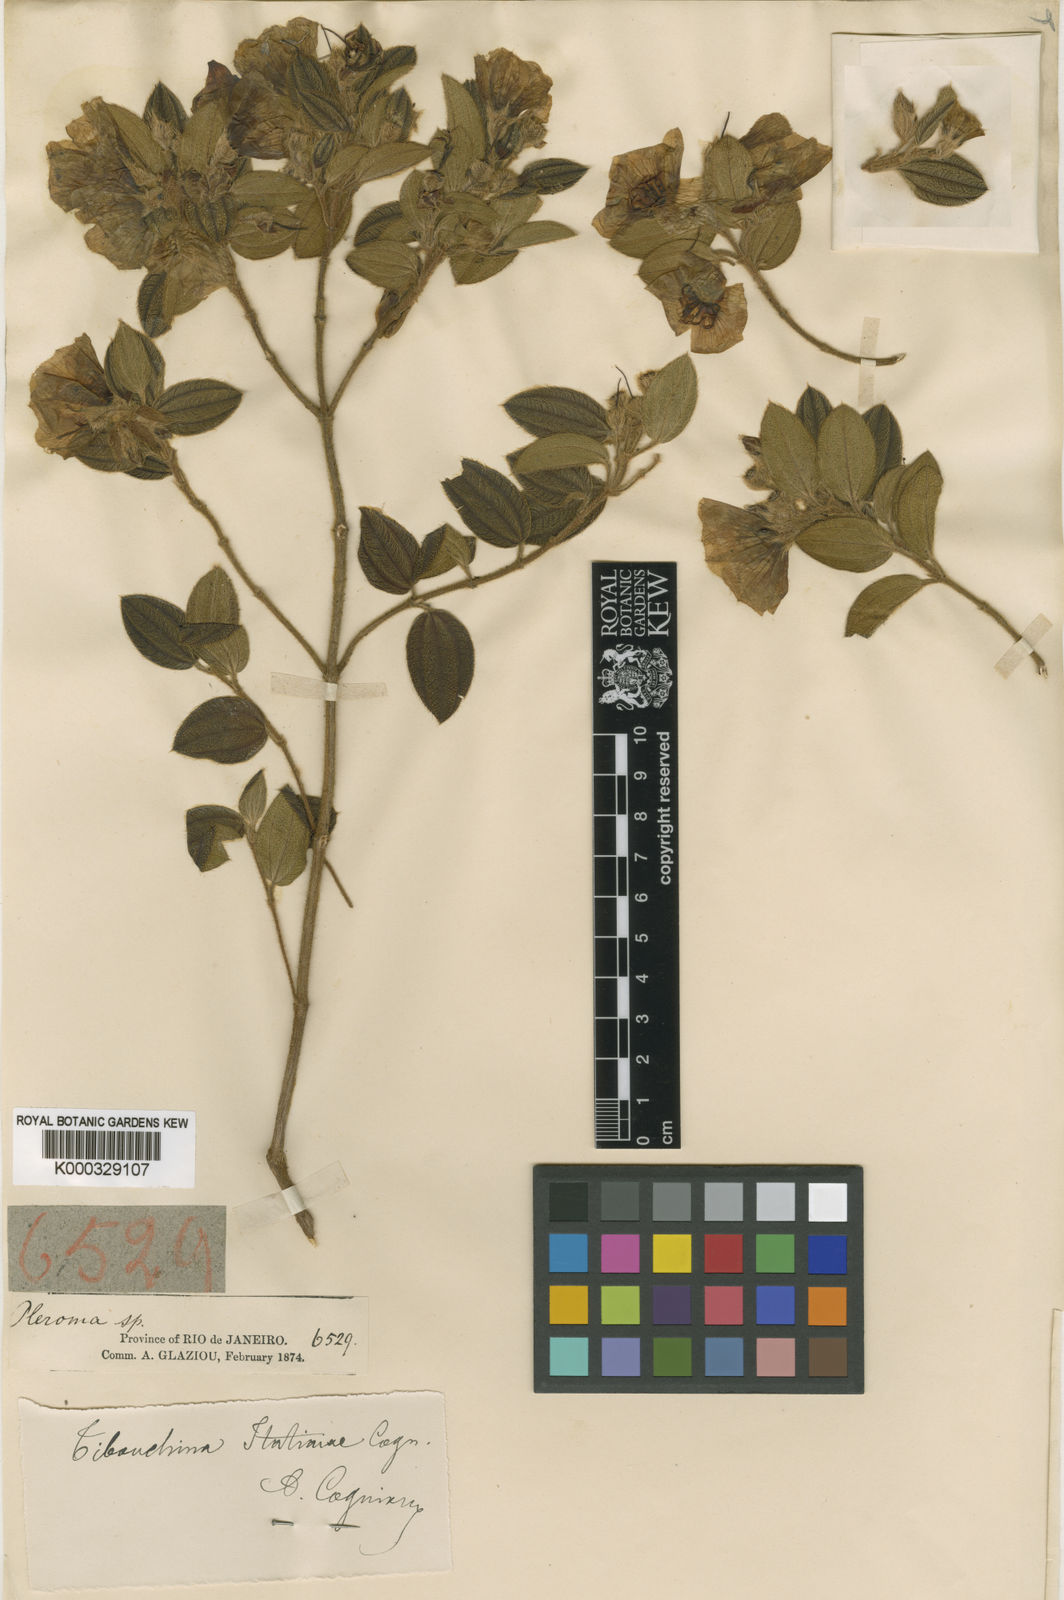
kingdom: Plantae
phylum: Tracheophyta
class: Magnoliopsida
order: Myrtales
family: Melastomataceae
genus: Pleroma
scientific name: Pleroma itatiaiae
